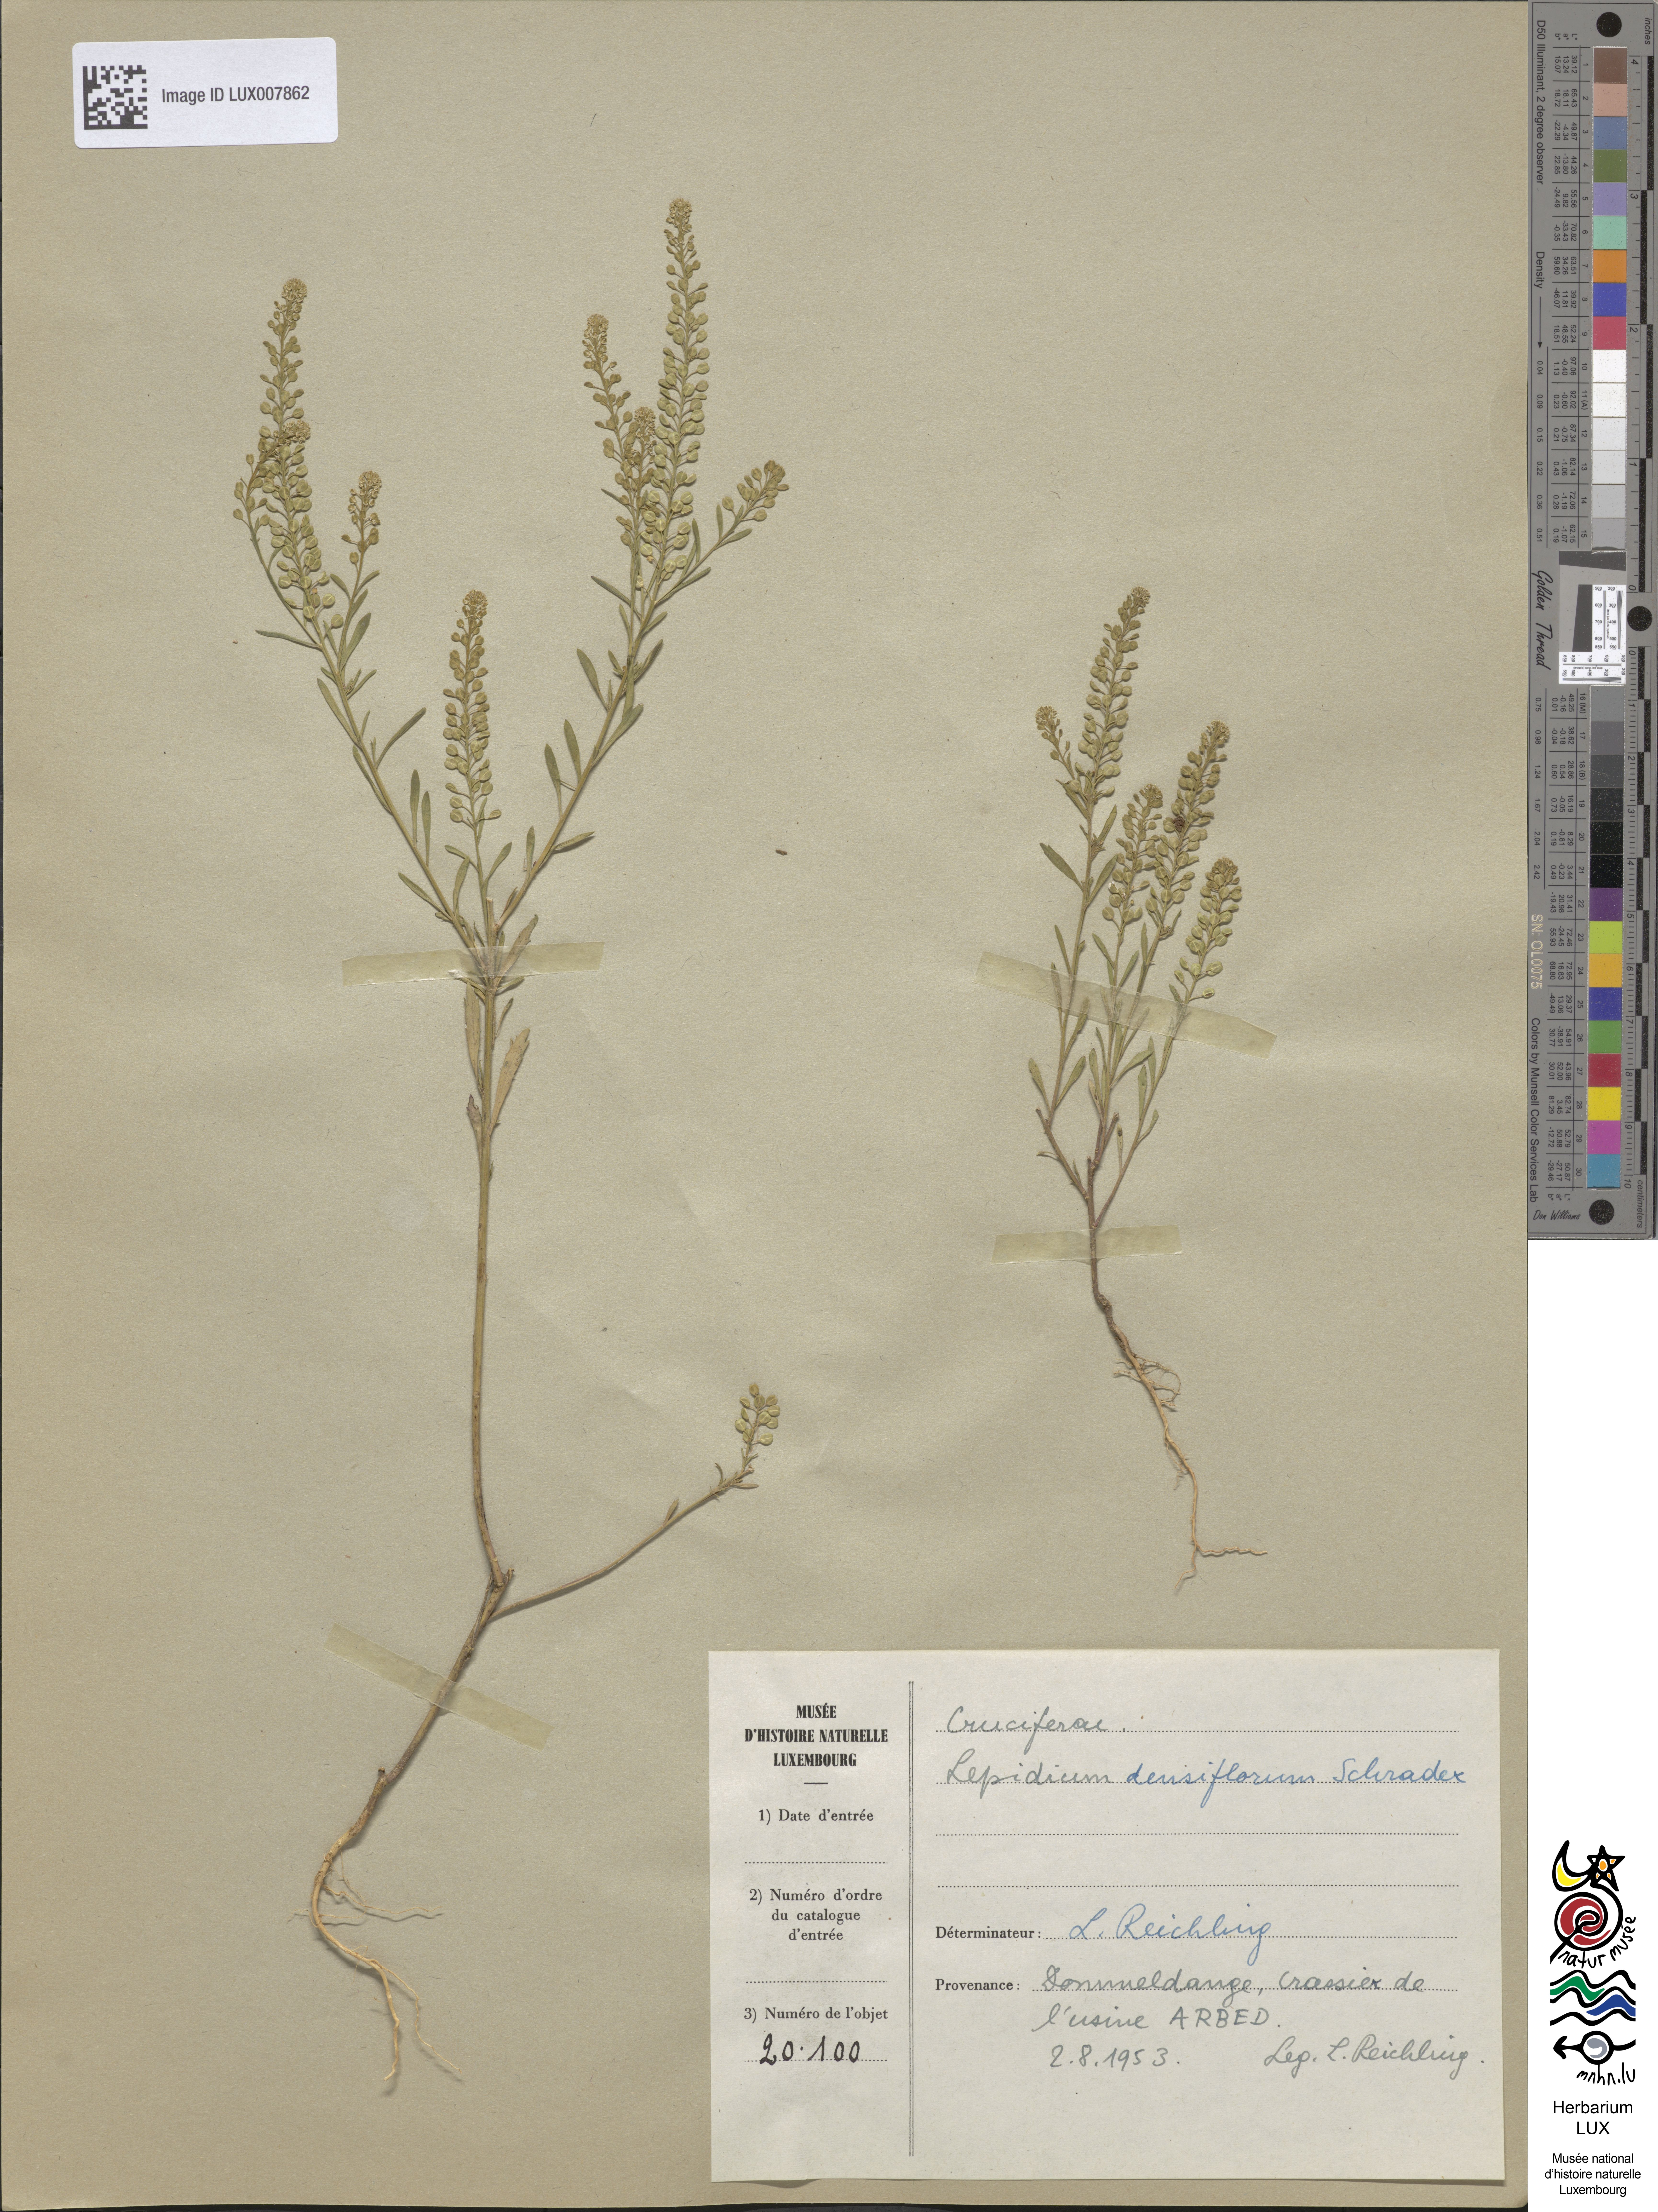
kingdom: Plantae
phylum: Tracheophyta
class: Magnoliopsida
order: Brassicales
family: Brassicaceae
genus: Lepidium
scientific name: Lepidium densiflorum
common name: Miner's pepperwort
